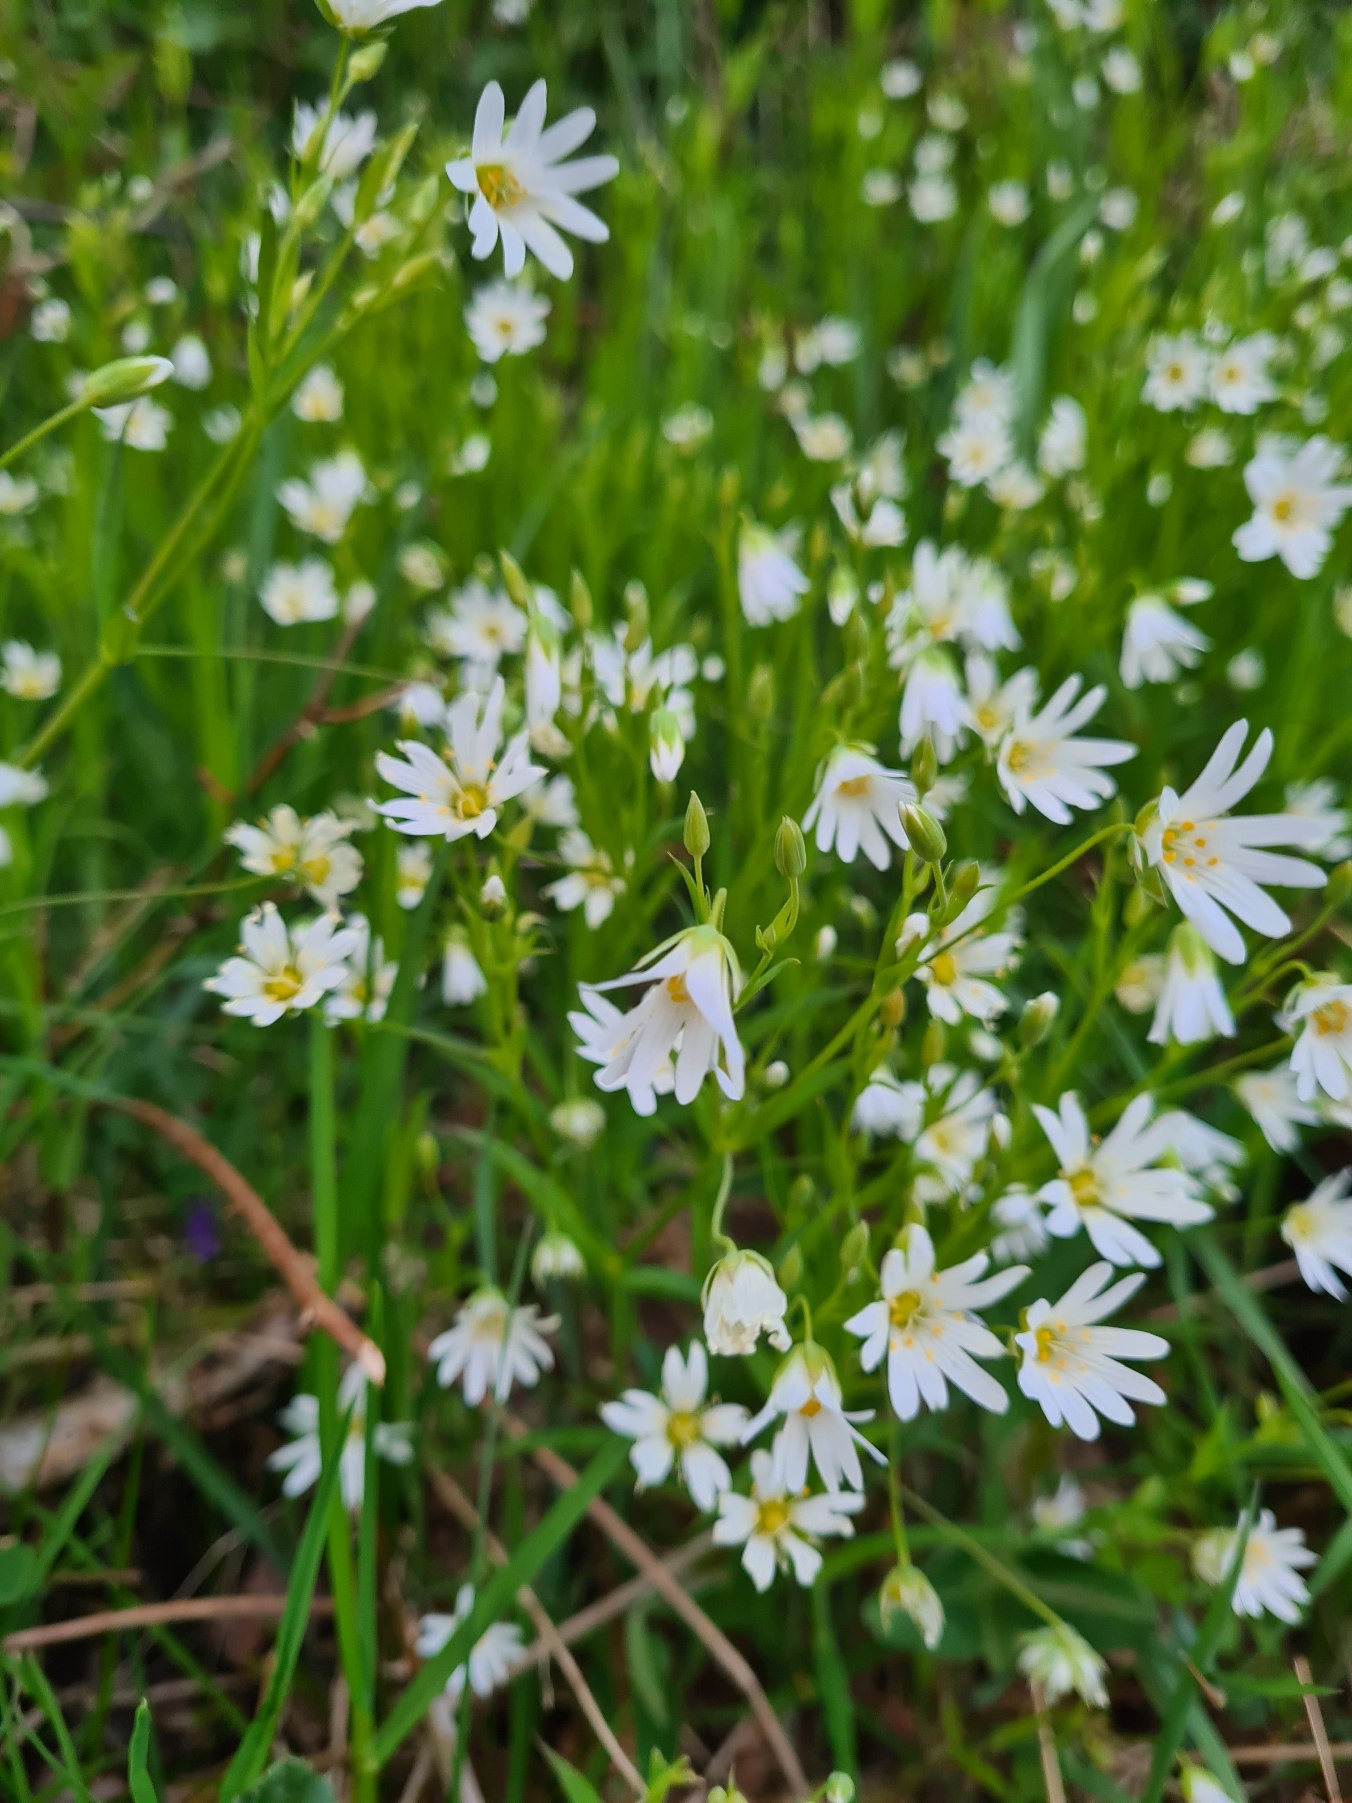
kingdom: Plantae
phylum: Tracheophyta
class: Magnoliopsida
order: Caryophyllales
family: Caryophyllaceae
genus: Rabelera
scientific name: Rabelera holostea
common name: Stor fladstjerne
